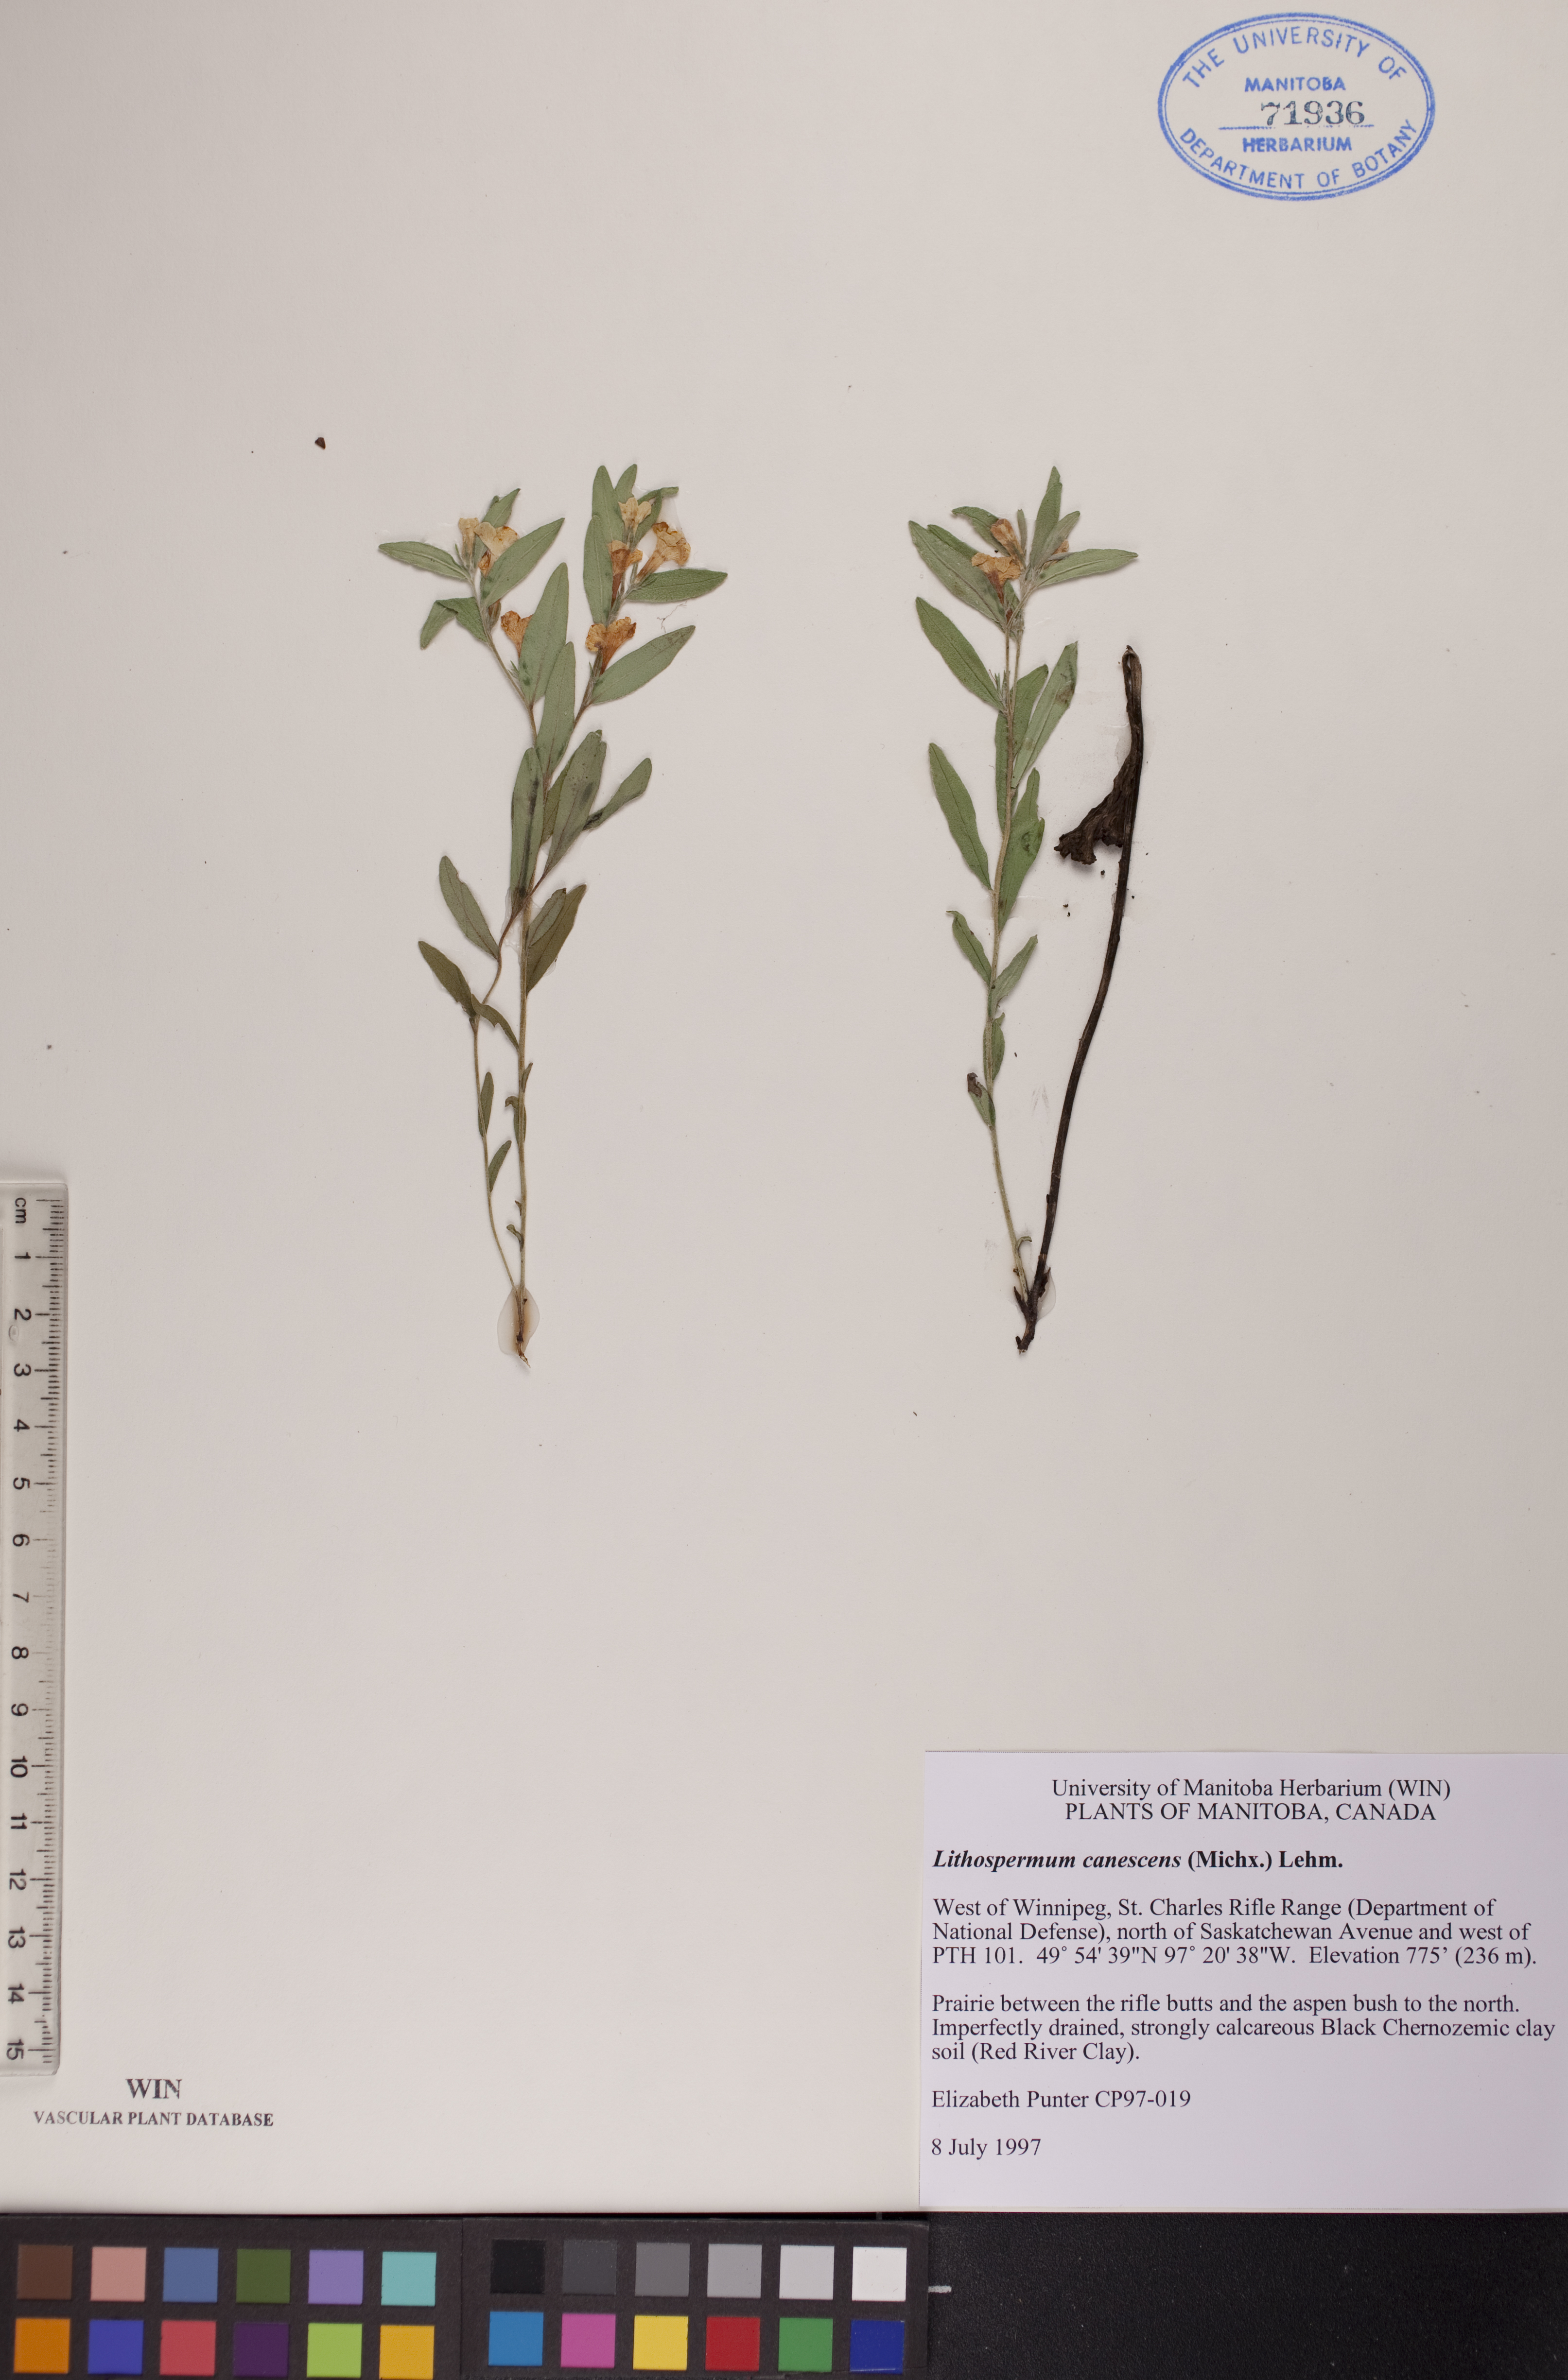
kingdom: Plantae
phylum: Tracheophyta
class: Magnoliopsida
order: Boraginales
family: Boraginaceae
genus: Lithospermum
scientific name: Lithospermum canescens
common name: Hoary puccoon
